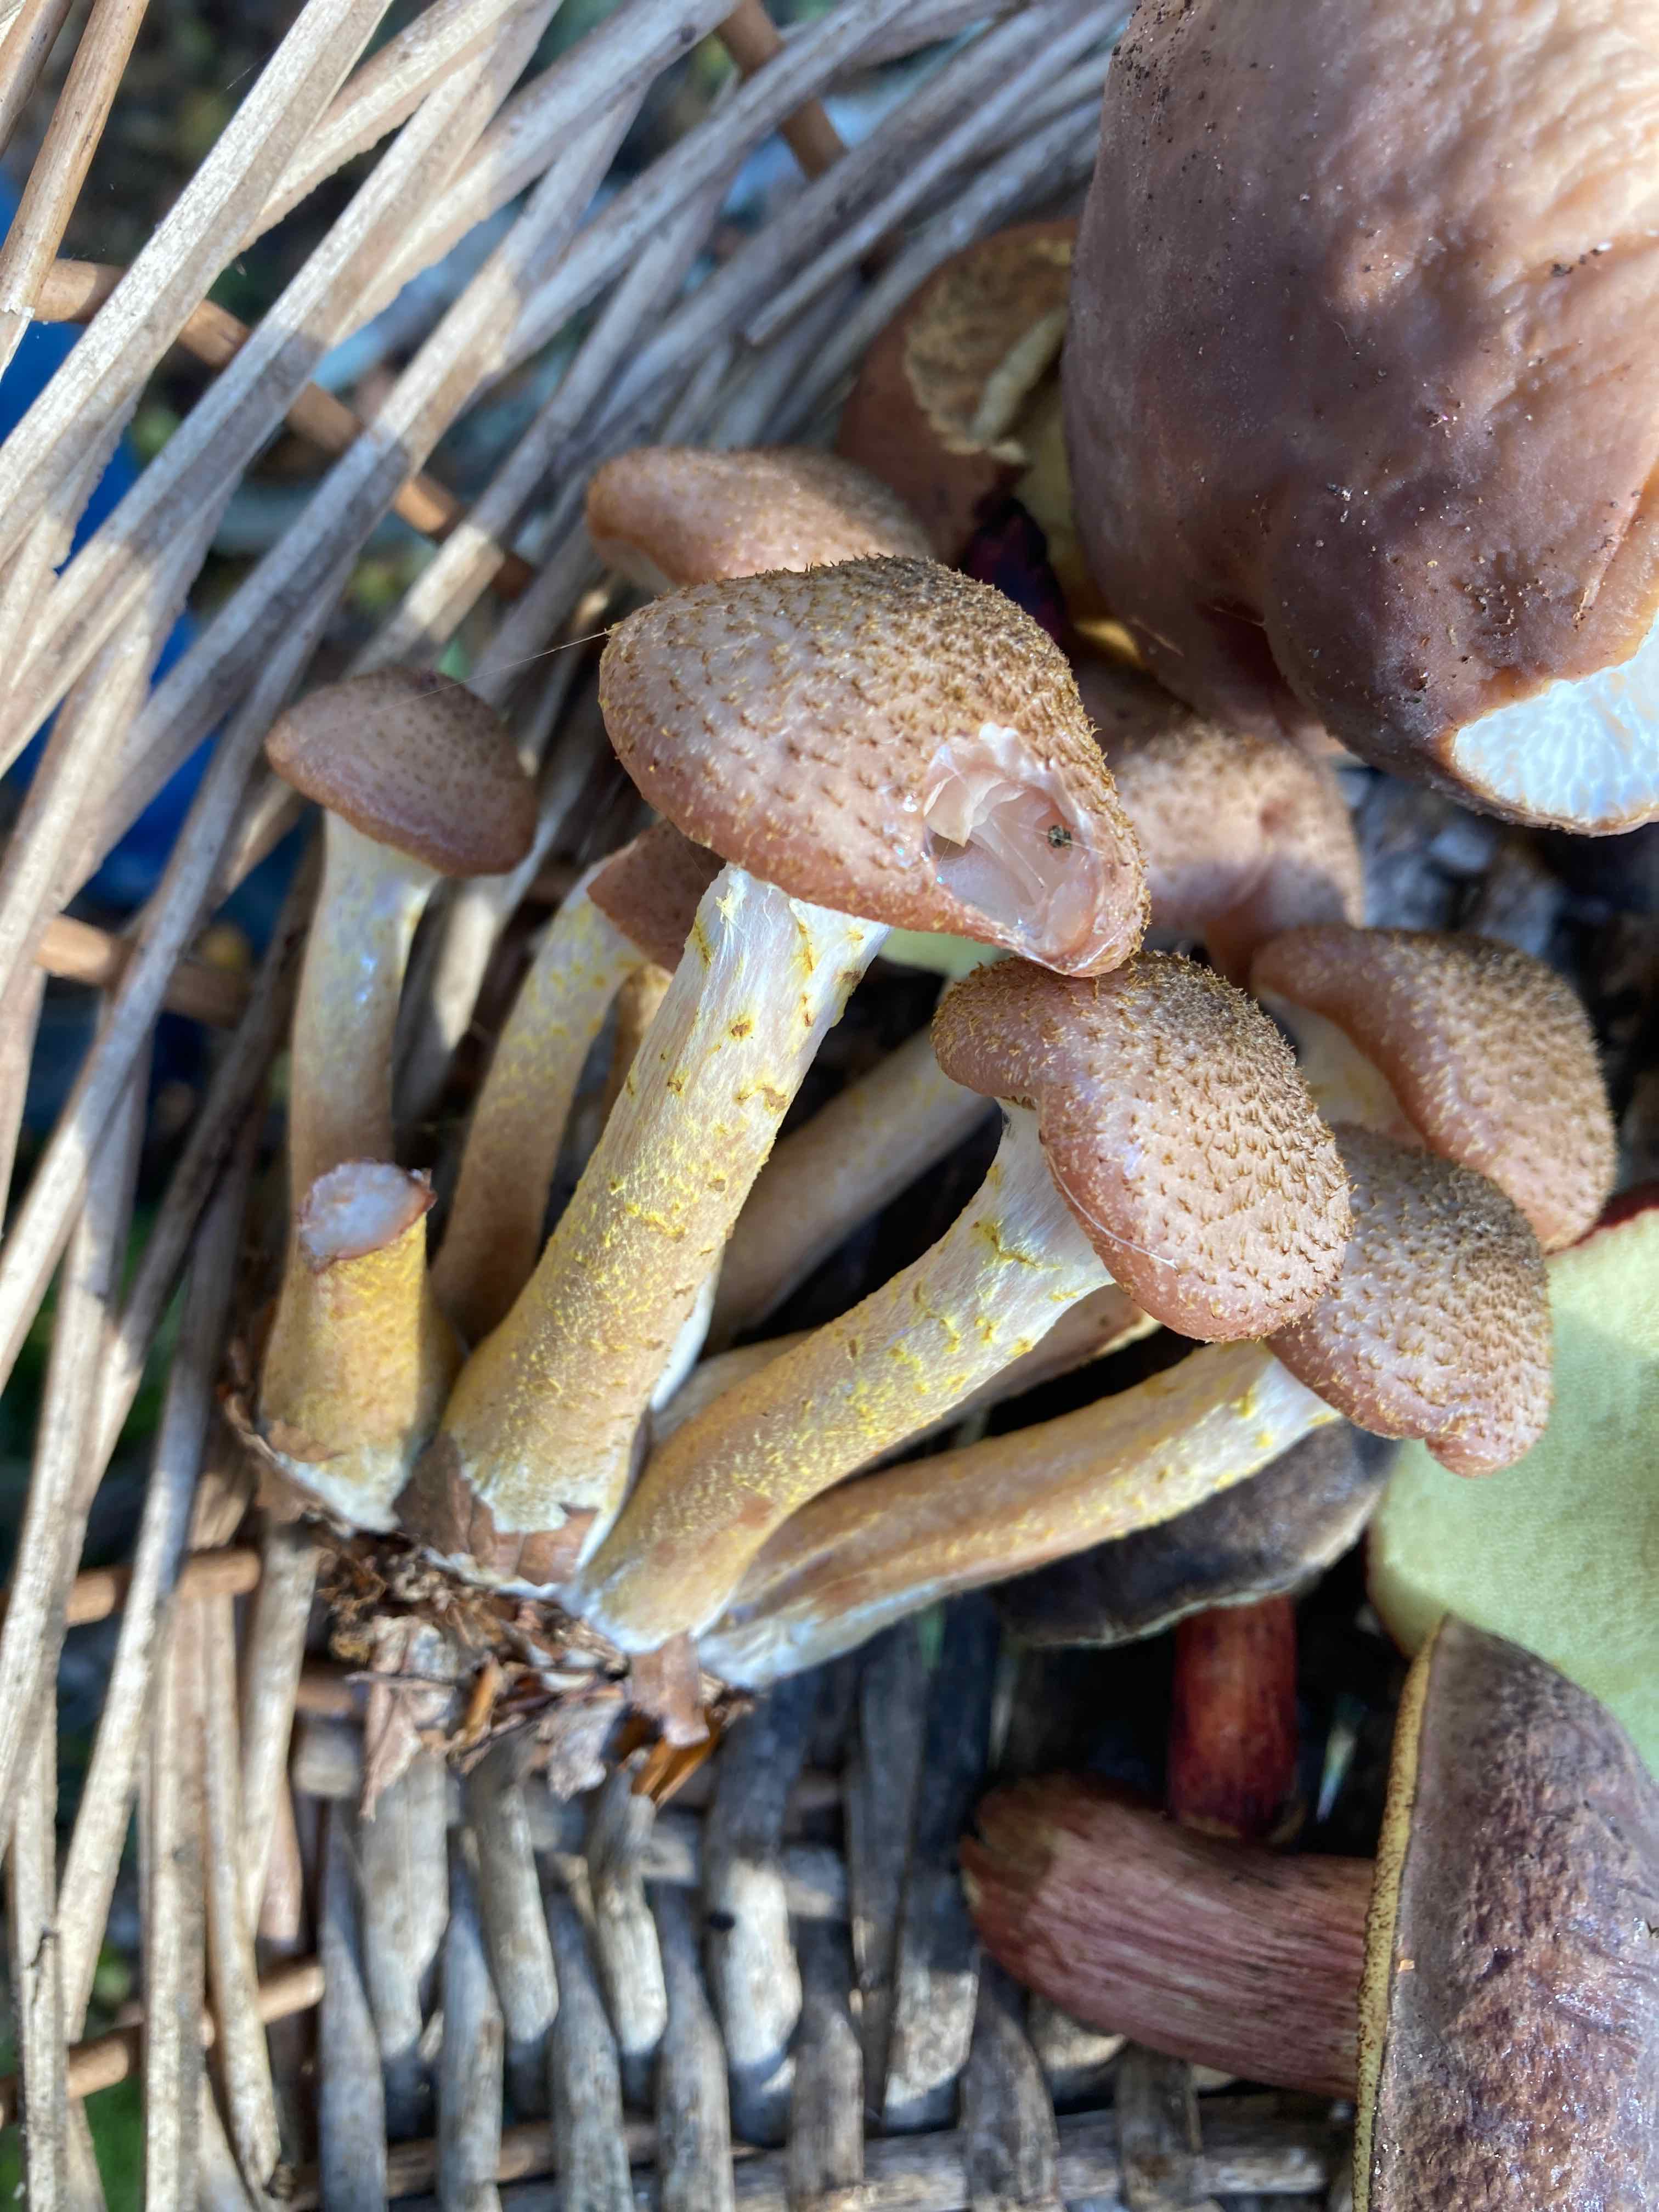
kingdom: Fungi
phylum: Basidiomycota
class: Agaricomycetes
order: Agaricales
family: Physalacriaceae
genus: Armillaria
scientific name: Armillaria lutea
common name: køllestokket honningsvamp
